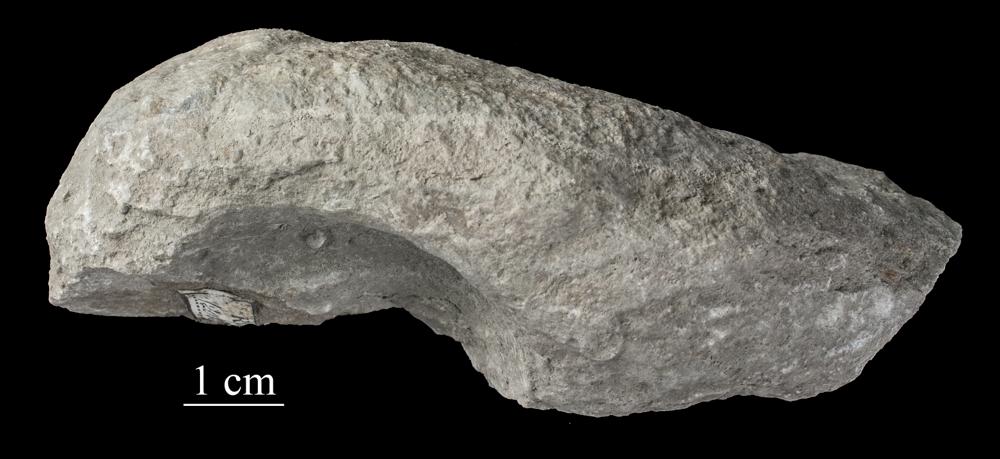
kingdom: Animalia
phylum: Mollusca
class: Gastropoda
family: Holopeidae
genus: Holopea
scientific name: Holopea ampullacea
